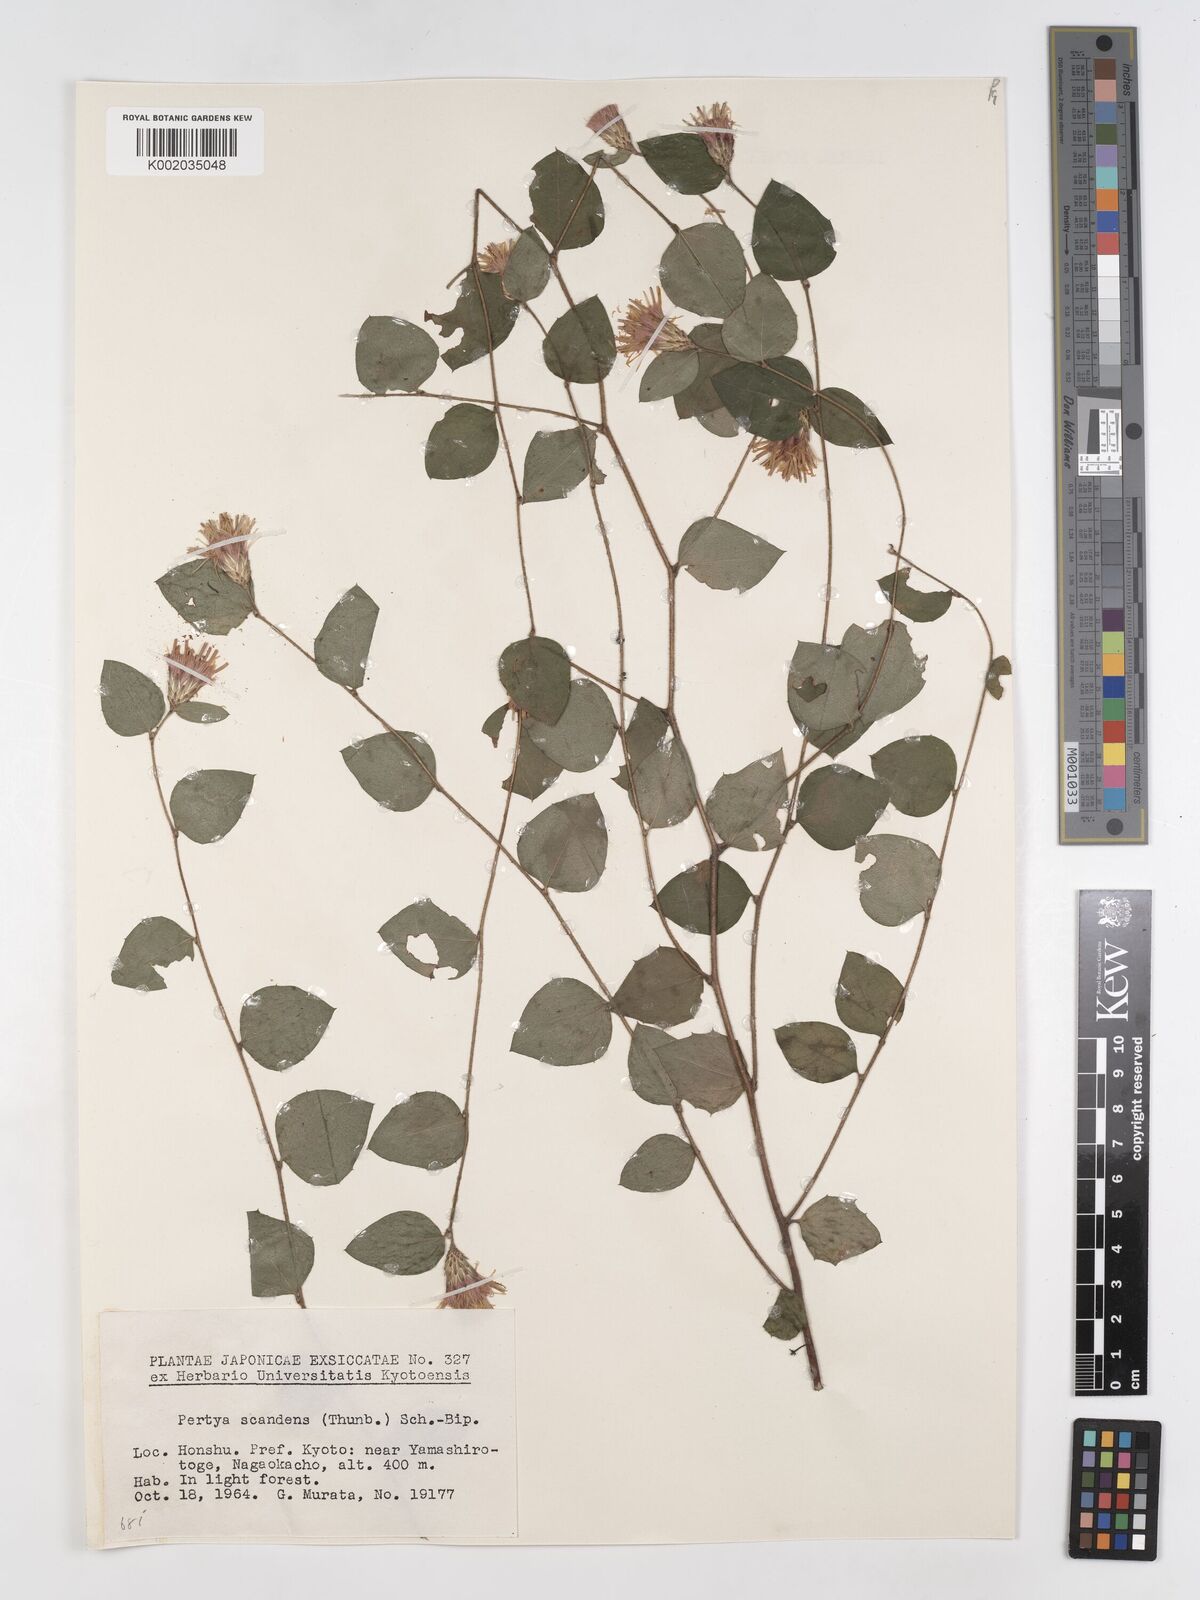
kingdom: Plantae
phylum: Tracheophyta
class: Magnoliopsida
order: Asterales
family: Asteraceae
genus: Pertya
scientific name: Pertya scandens
